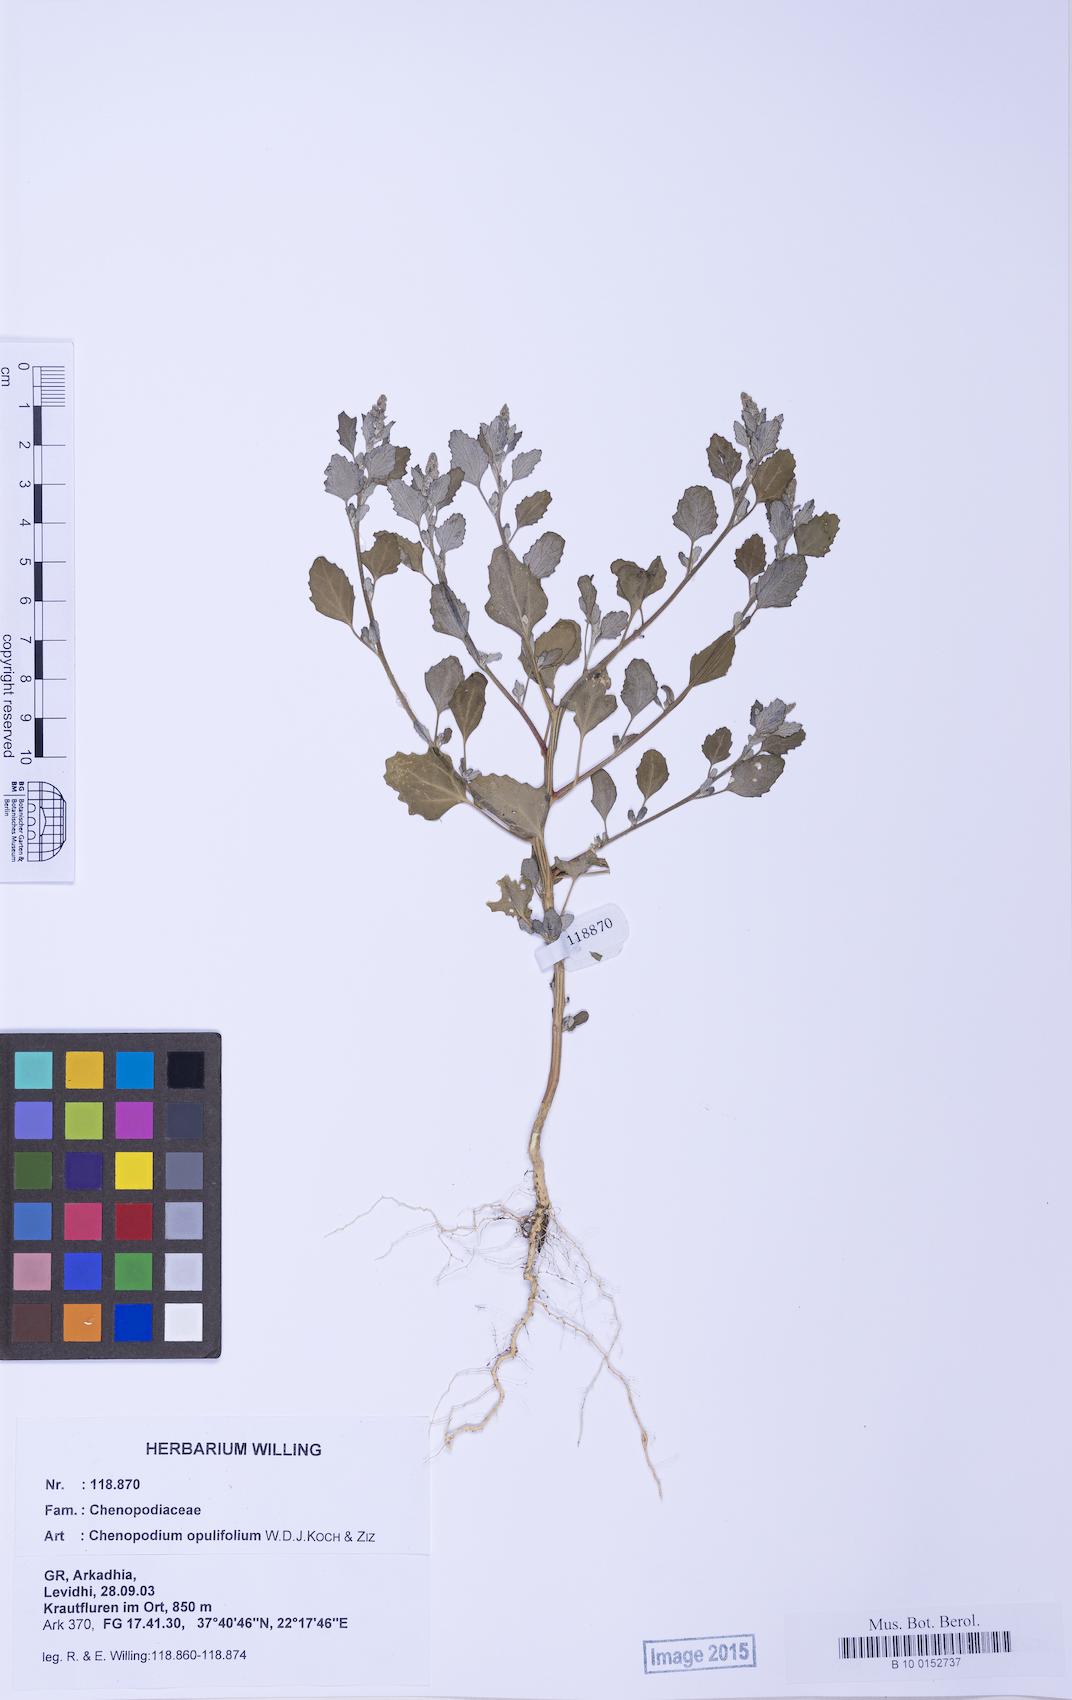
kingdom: Plantae
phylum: Tracheophyta
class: Magnoliopsida
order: Caryophyllales
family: Amaranthaceae
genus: Chenopodium
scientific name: Chenopodium album
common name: Fat-hen
